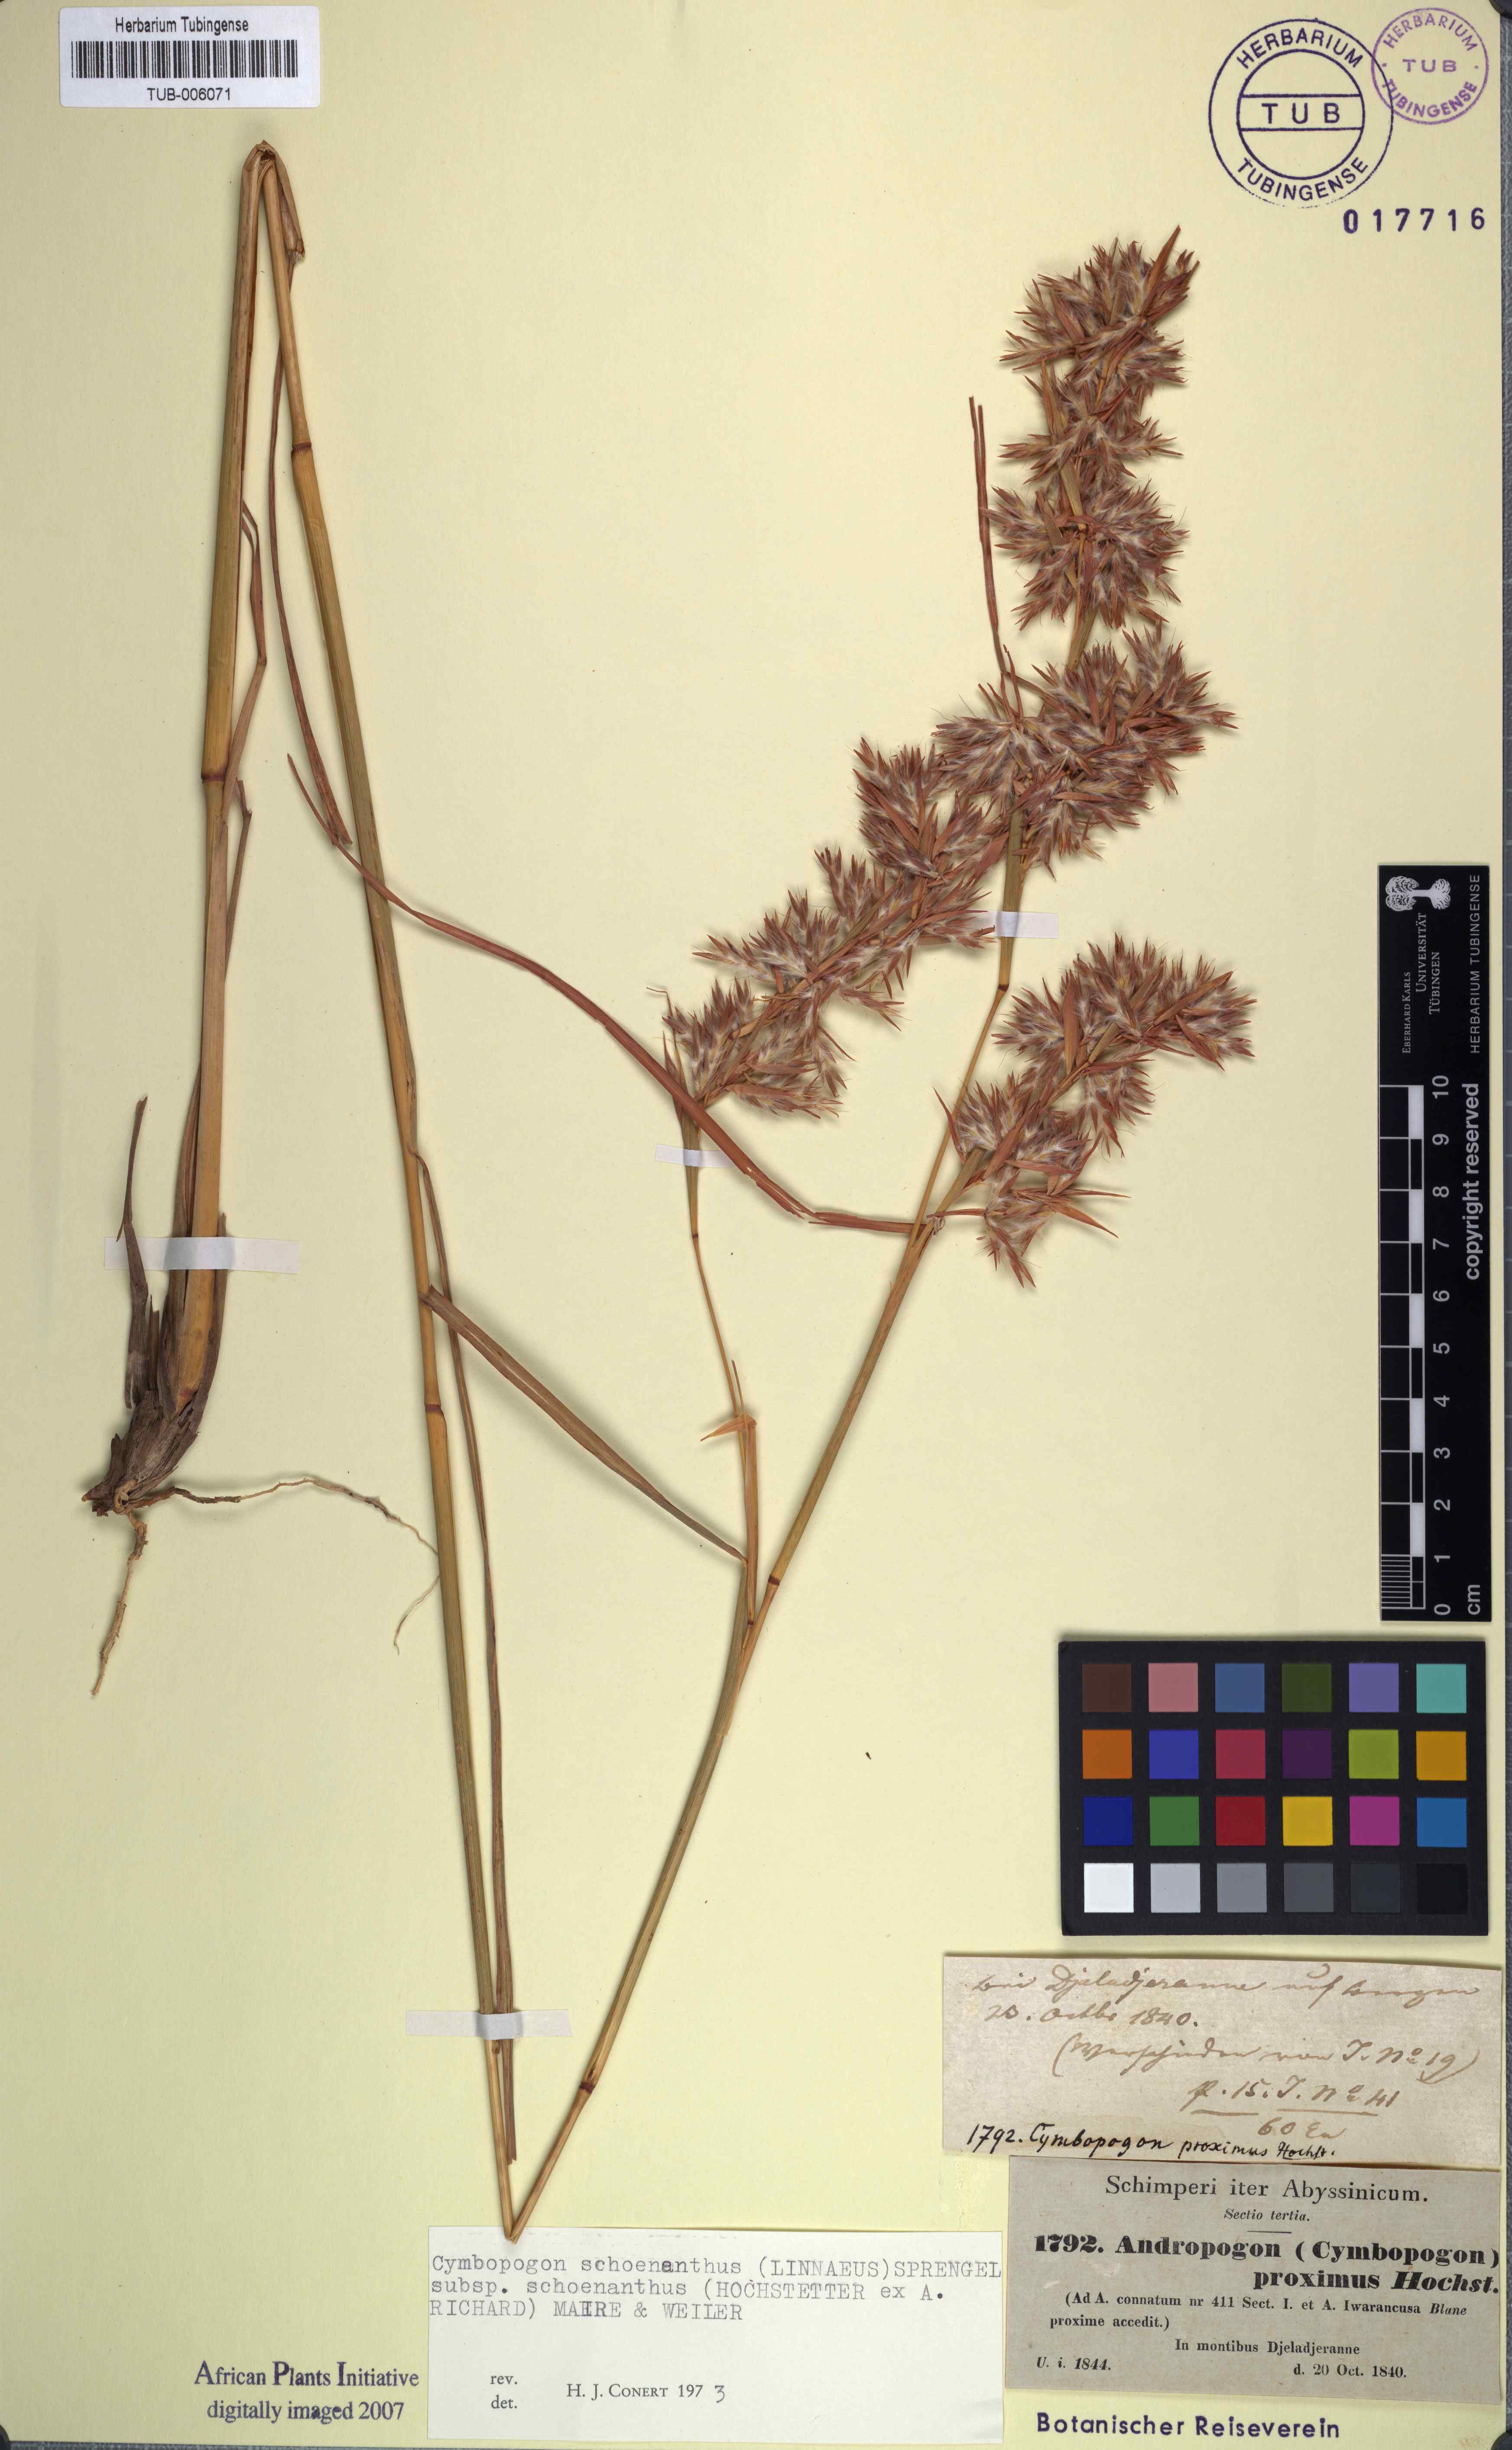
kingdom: Plantae
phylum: Tracheophyta
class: Liliopsida
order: Poales
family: Poaceae
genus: Cymbopogon
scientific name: Cymbopogon schoenanthus
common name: Geranium grass
